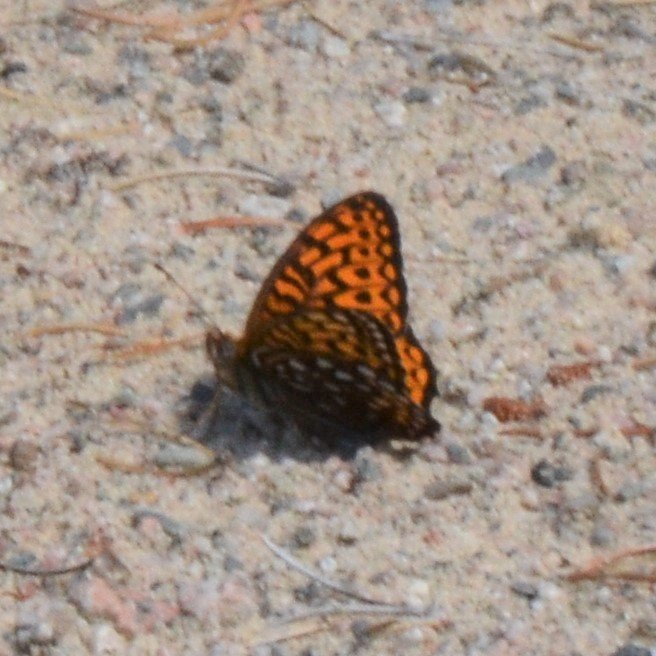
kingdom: Animalia
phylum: Arthropoda
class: Insecta
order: Lepidoptera
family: Nymphalidae
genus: Speyeria
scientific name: Speyeria atlantis
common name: Atlantis Fritillary
